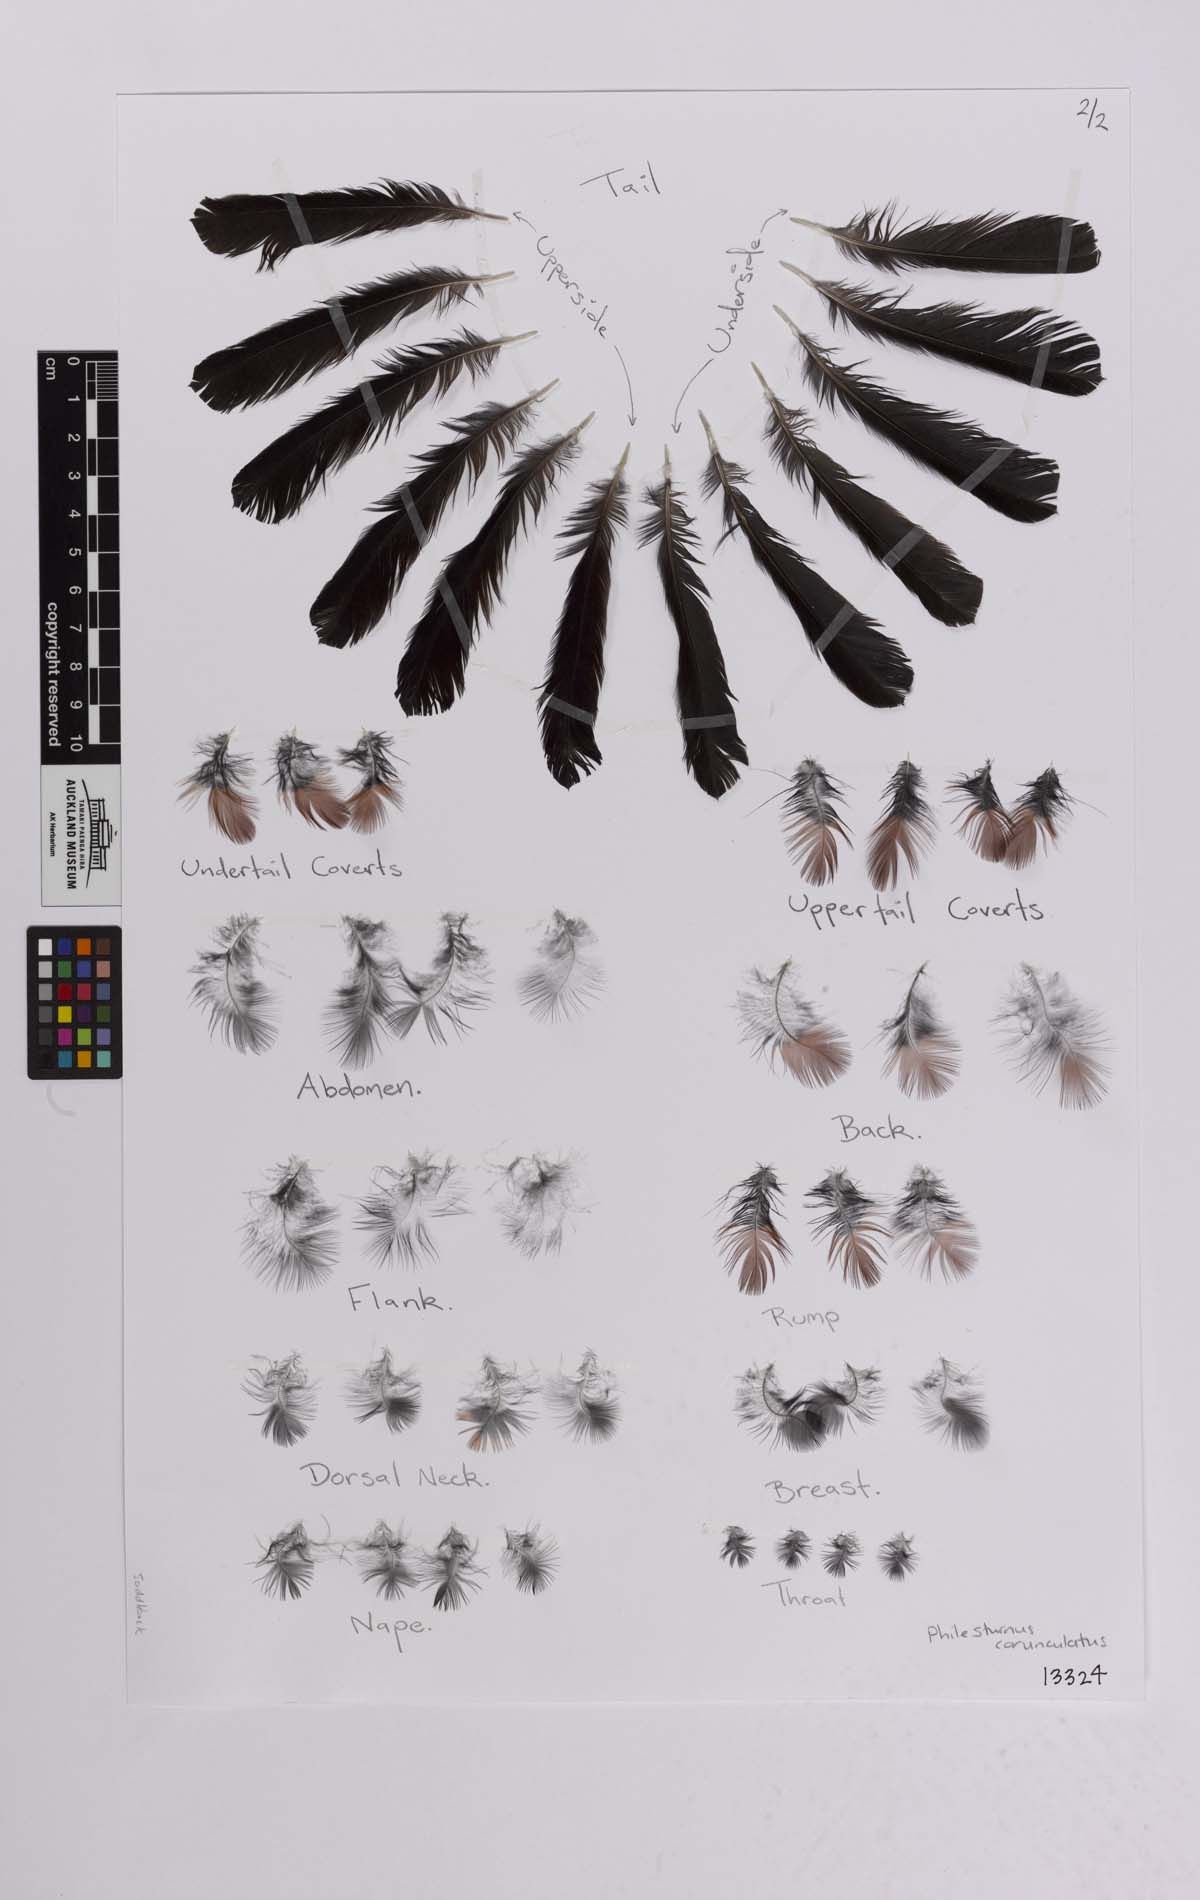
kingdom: Animalia
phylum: Chordata
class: Aves
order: Passeriformes
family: Callaeatidae
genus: Philesturnus
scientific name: Philesturnus carunculatus
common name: South island saddleback
